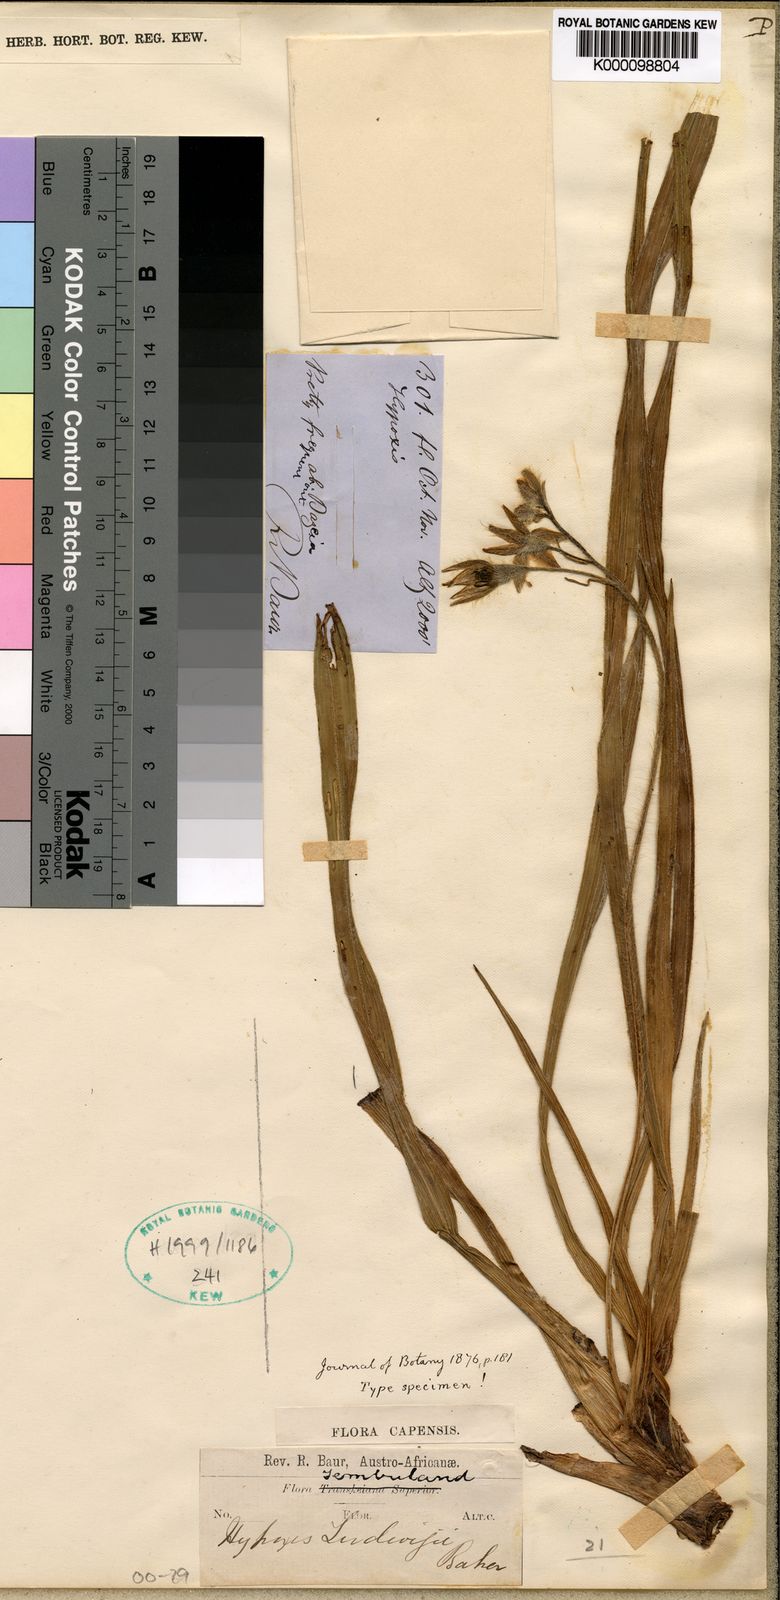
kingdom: Plantae
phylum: Tracheophyta
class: Liliopsida
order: Asparagales
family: Hypoxidaceae
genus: Hypoxis
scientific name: Hypoxis ludwigii
